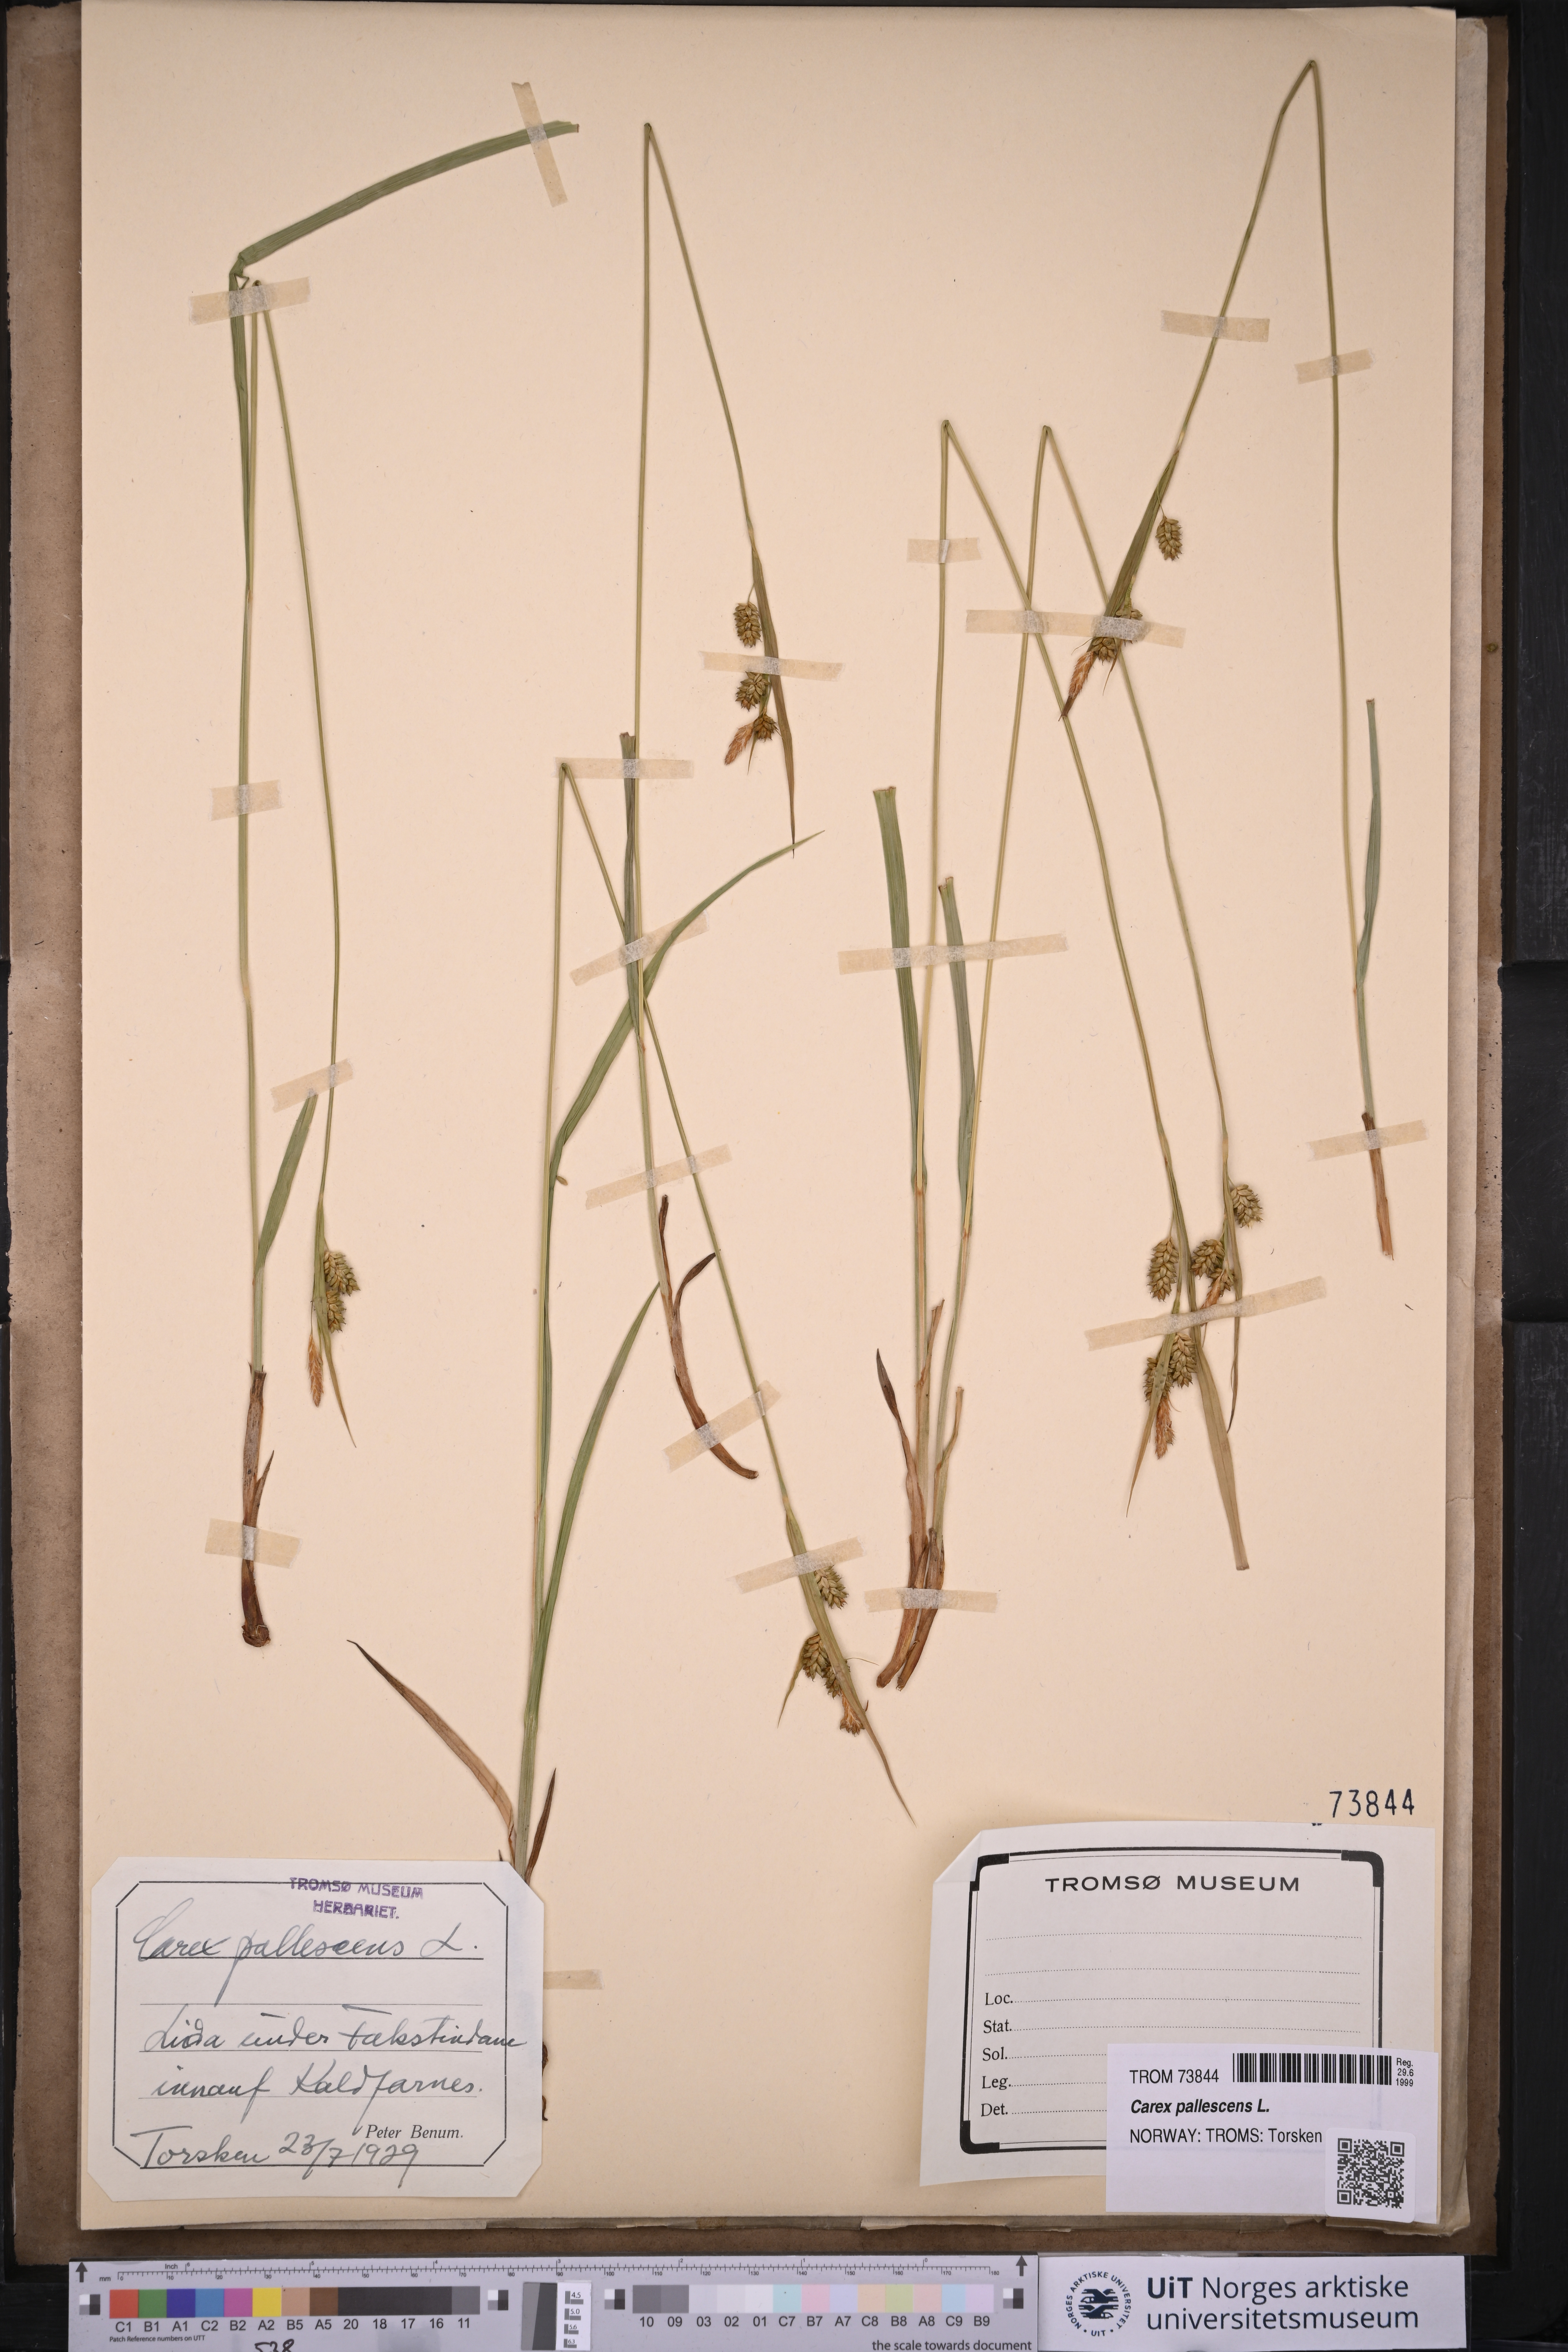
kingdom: Plantae
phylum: Tracheophyta
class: Liliopsida
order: Poales
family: Cyperaceae
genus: Carex
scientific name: Carex pallescens
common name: Pale sedge
